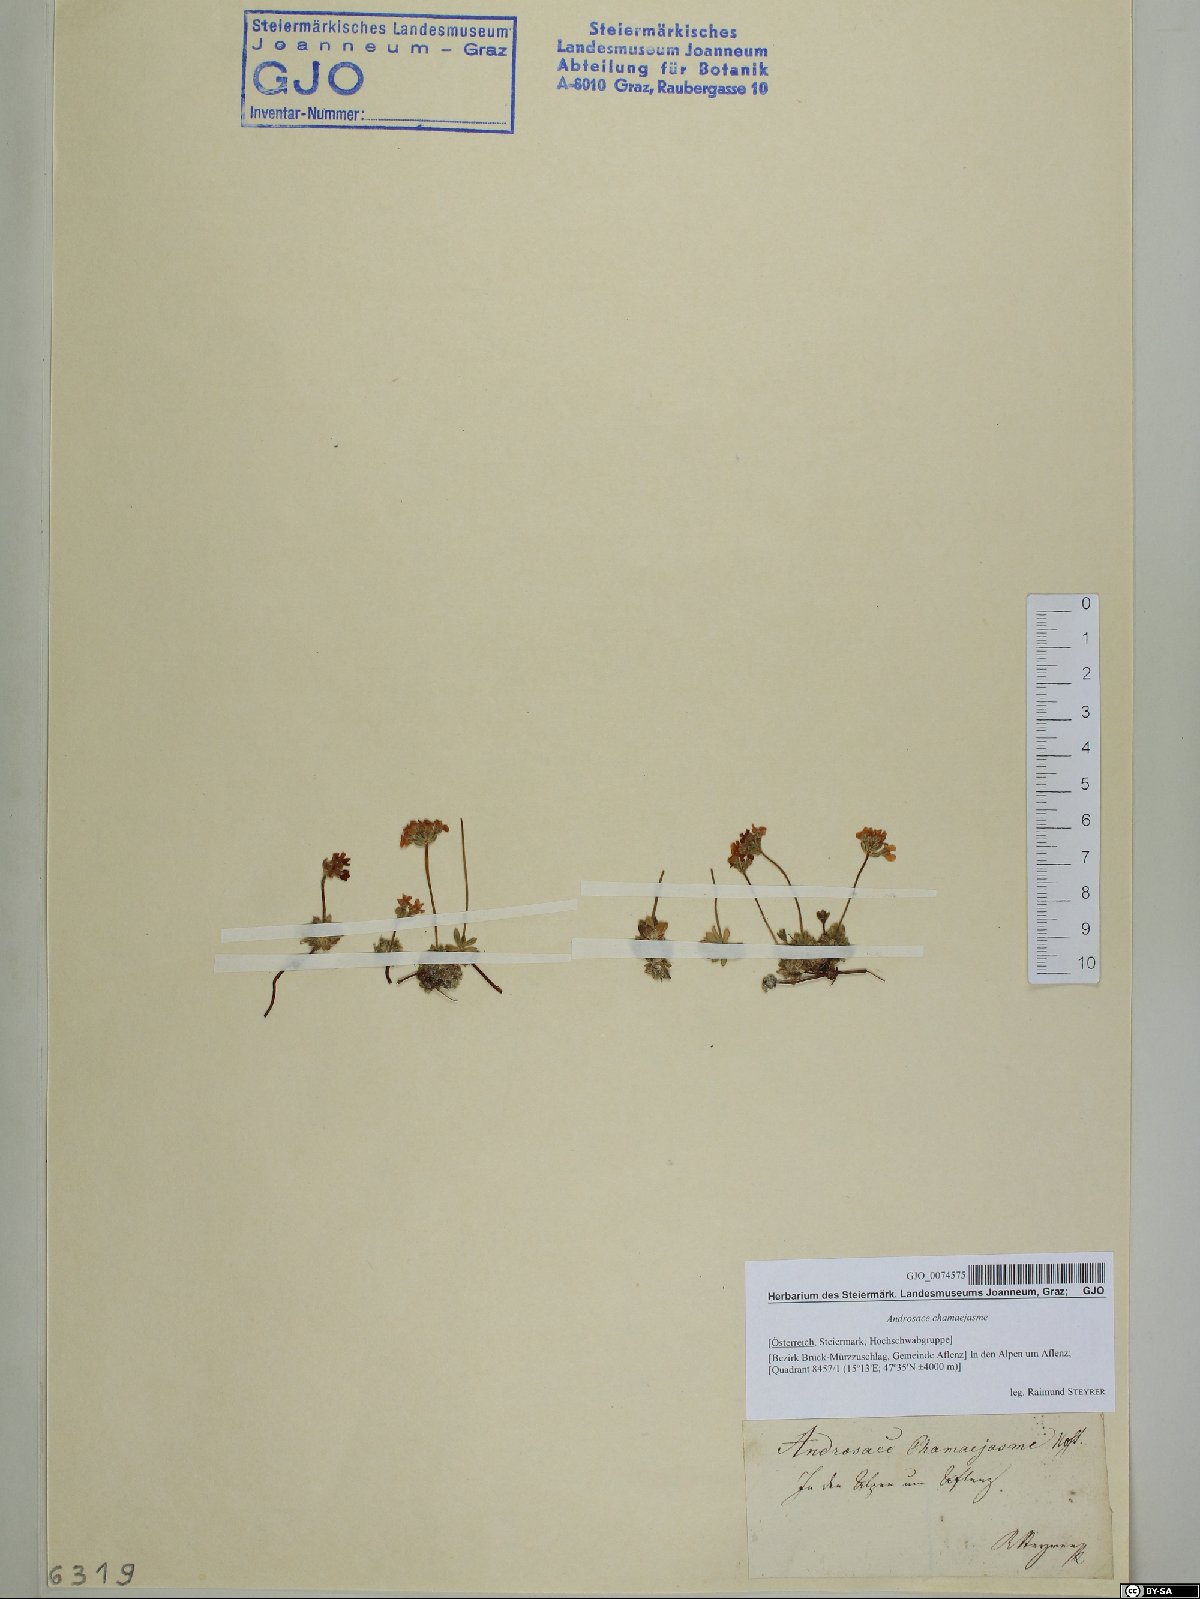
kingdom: Plantae
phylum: Tracheophyta
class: Magnoliopsida
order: Ericales
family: Primulaceae
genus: Androsace
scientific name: Androsace chamaejasme
